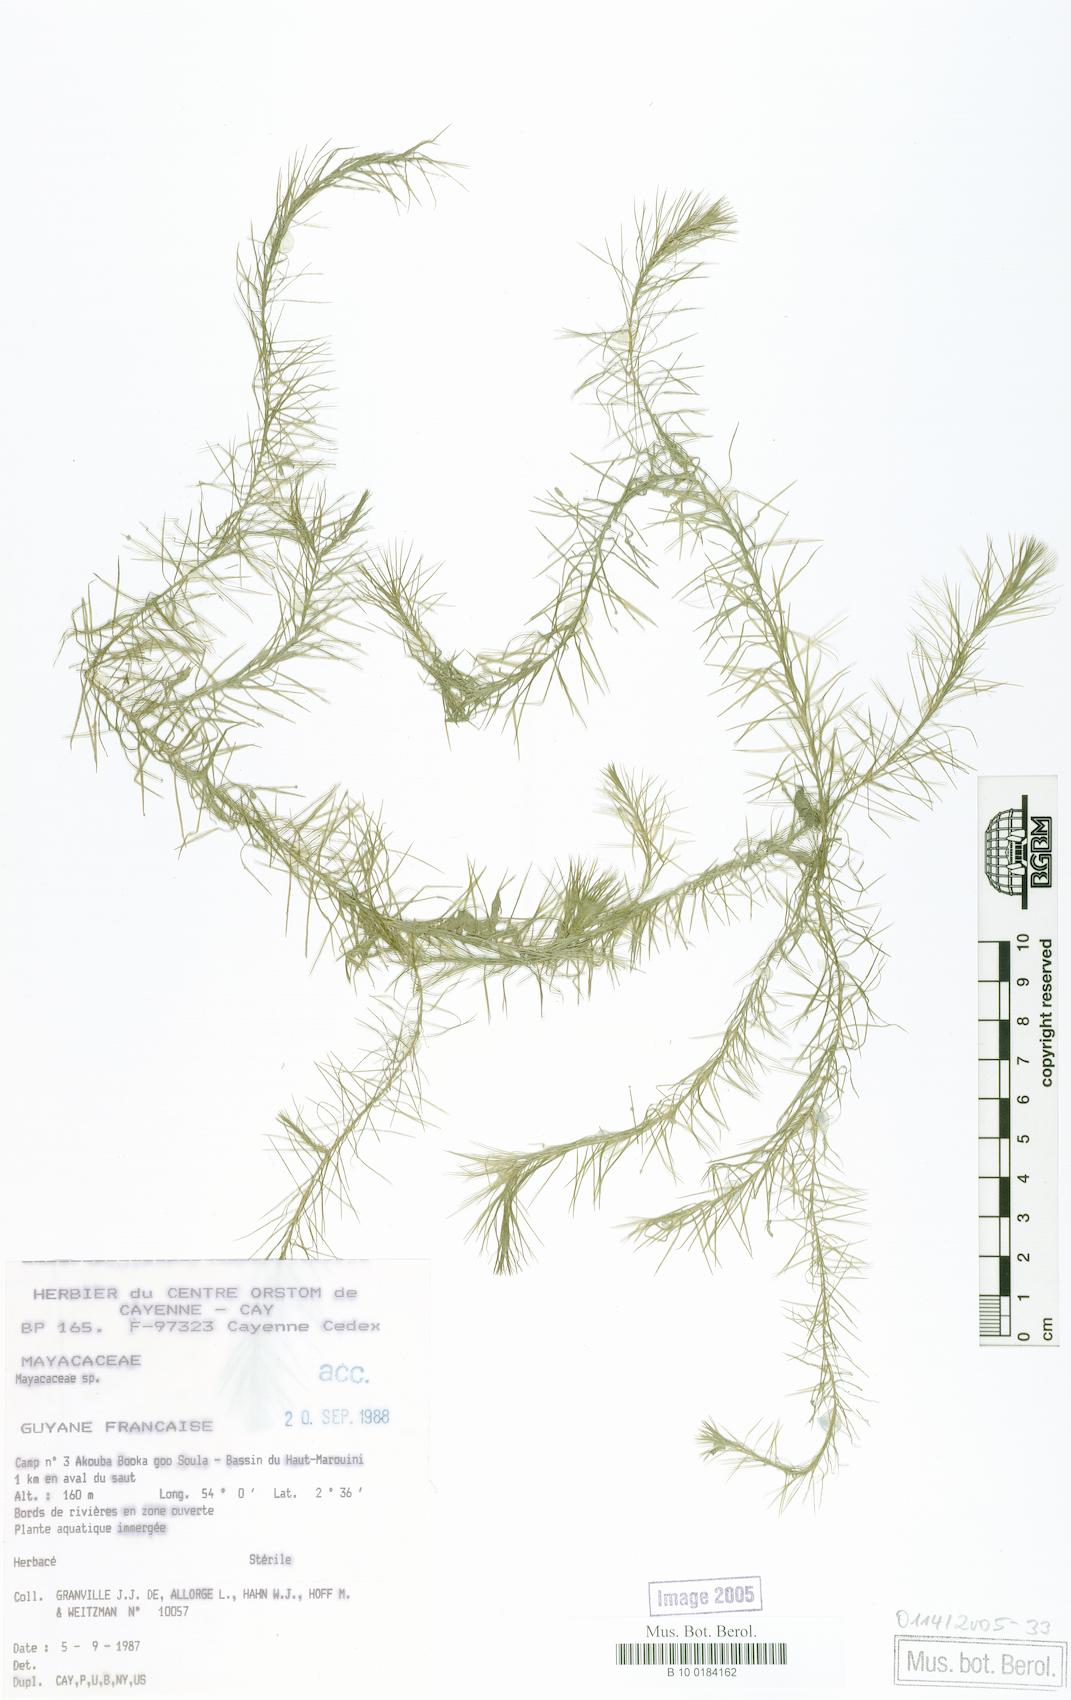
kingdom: Plantae
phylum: Tracheophyta
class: Liliopsida
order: Poales
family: Mayacaceae
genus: Mayaca
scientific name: Mayaca
